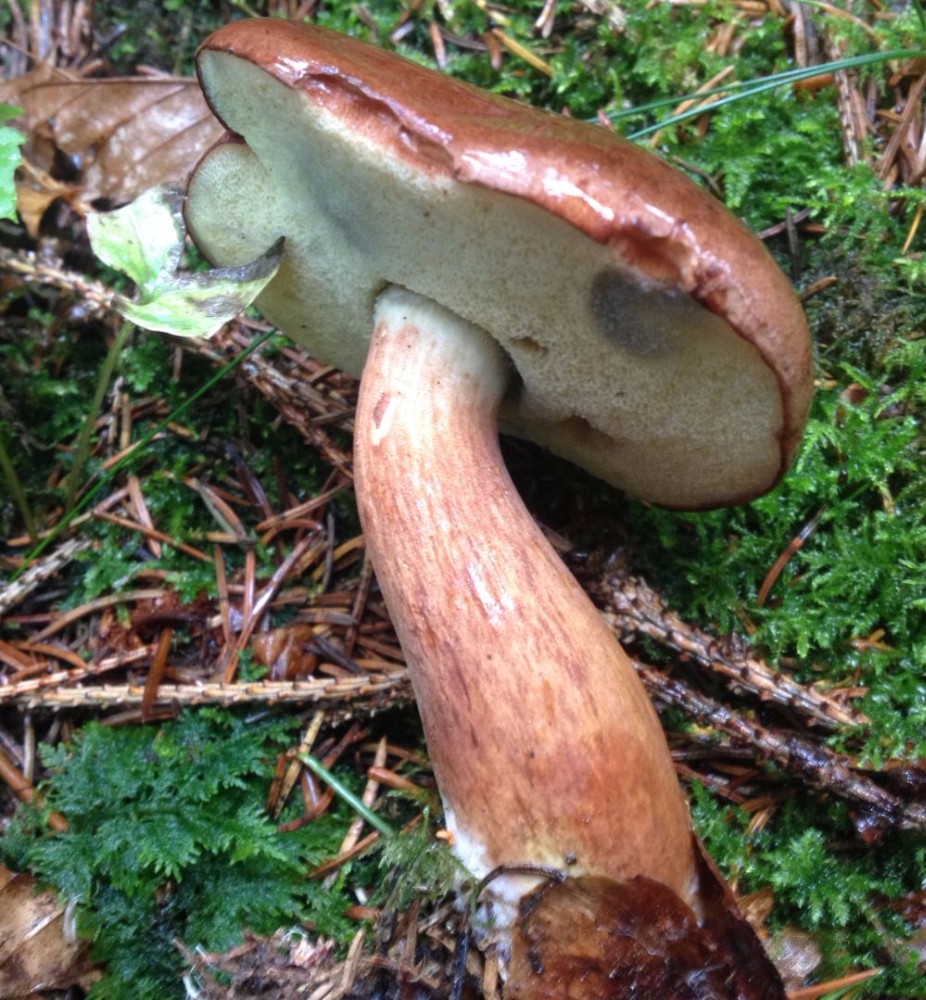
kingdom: Fungi
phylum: Basidiomycota
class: Agaricomycetes
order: Boletales
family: Boletaceae
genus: Imleria
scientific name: Imleria badia
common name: brunstokket rørhat
